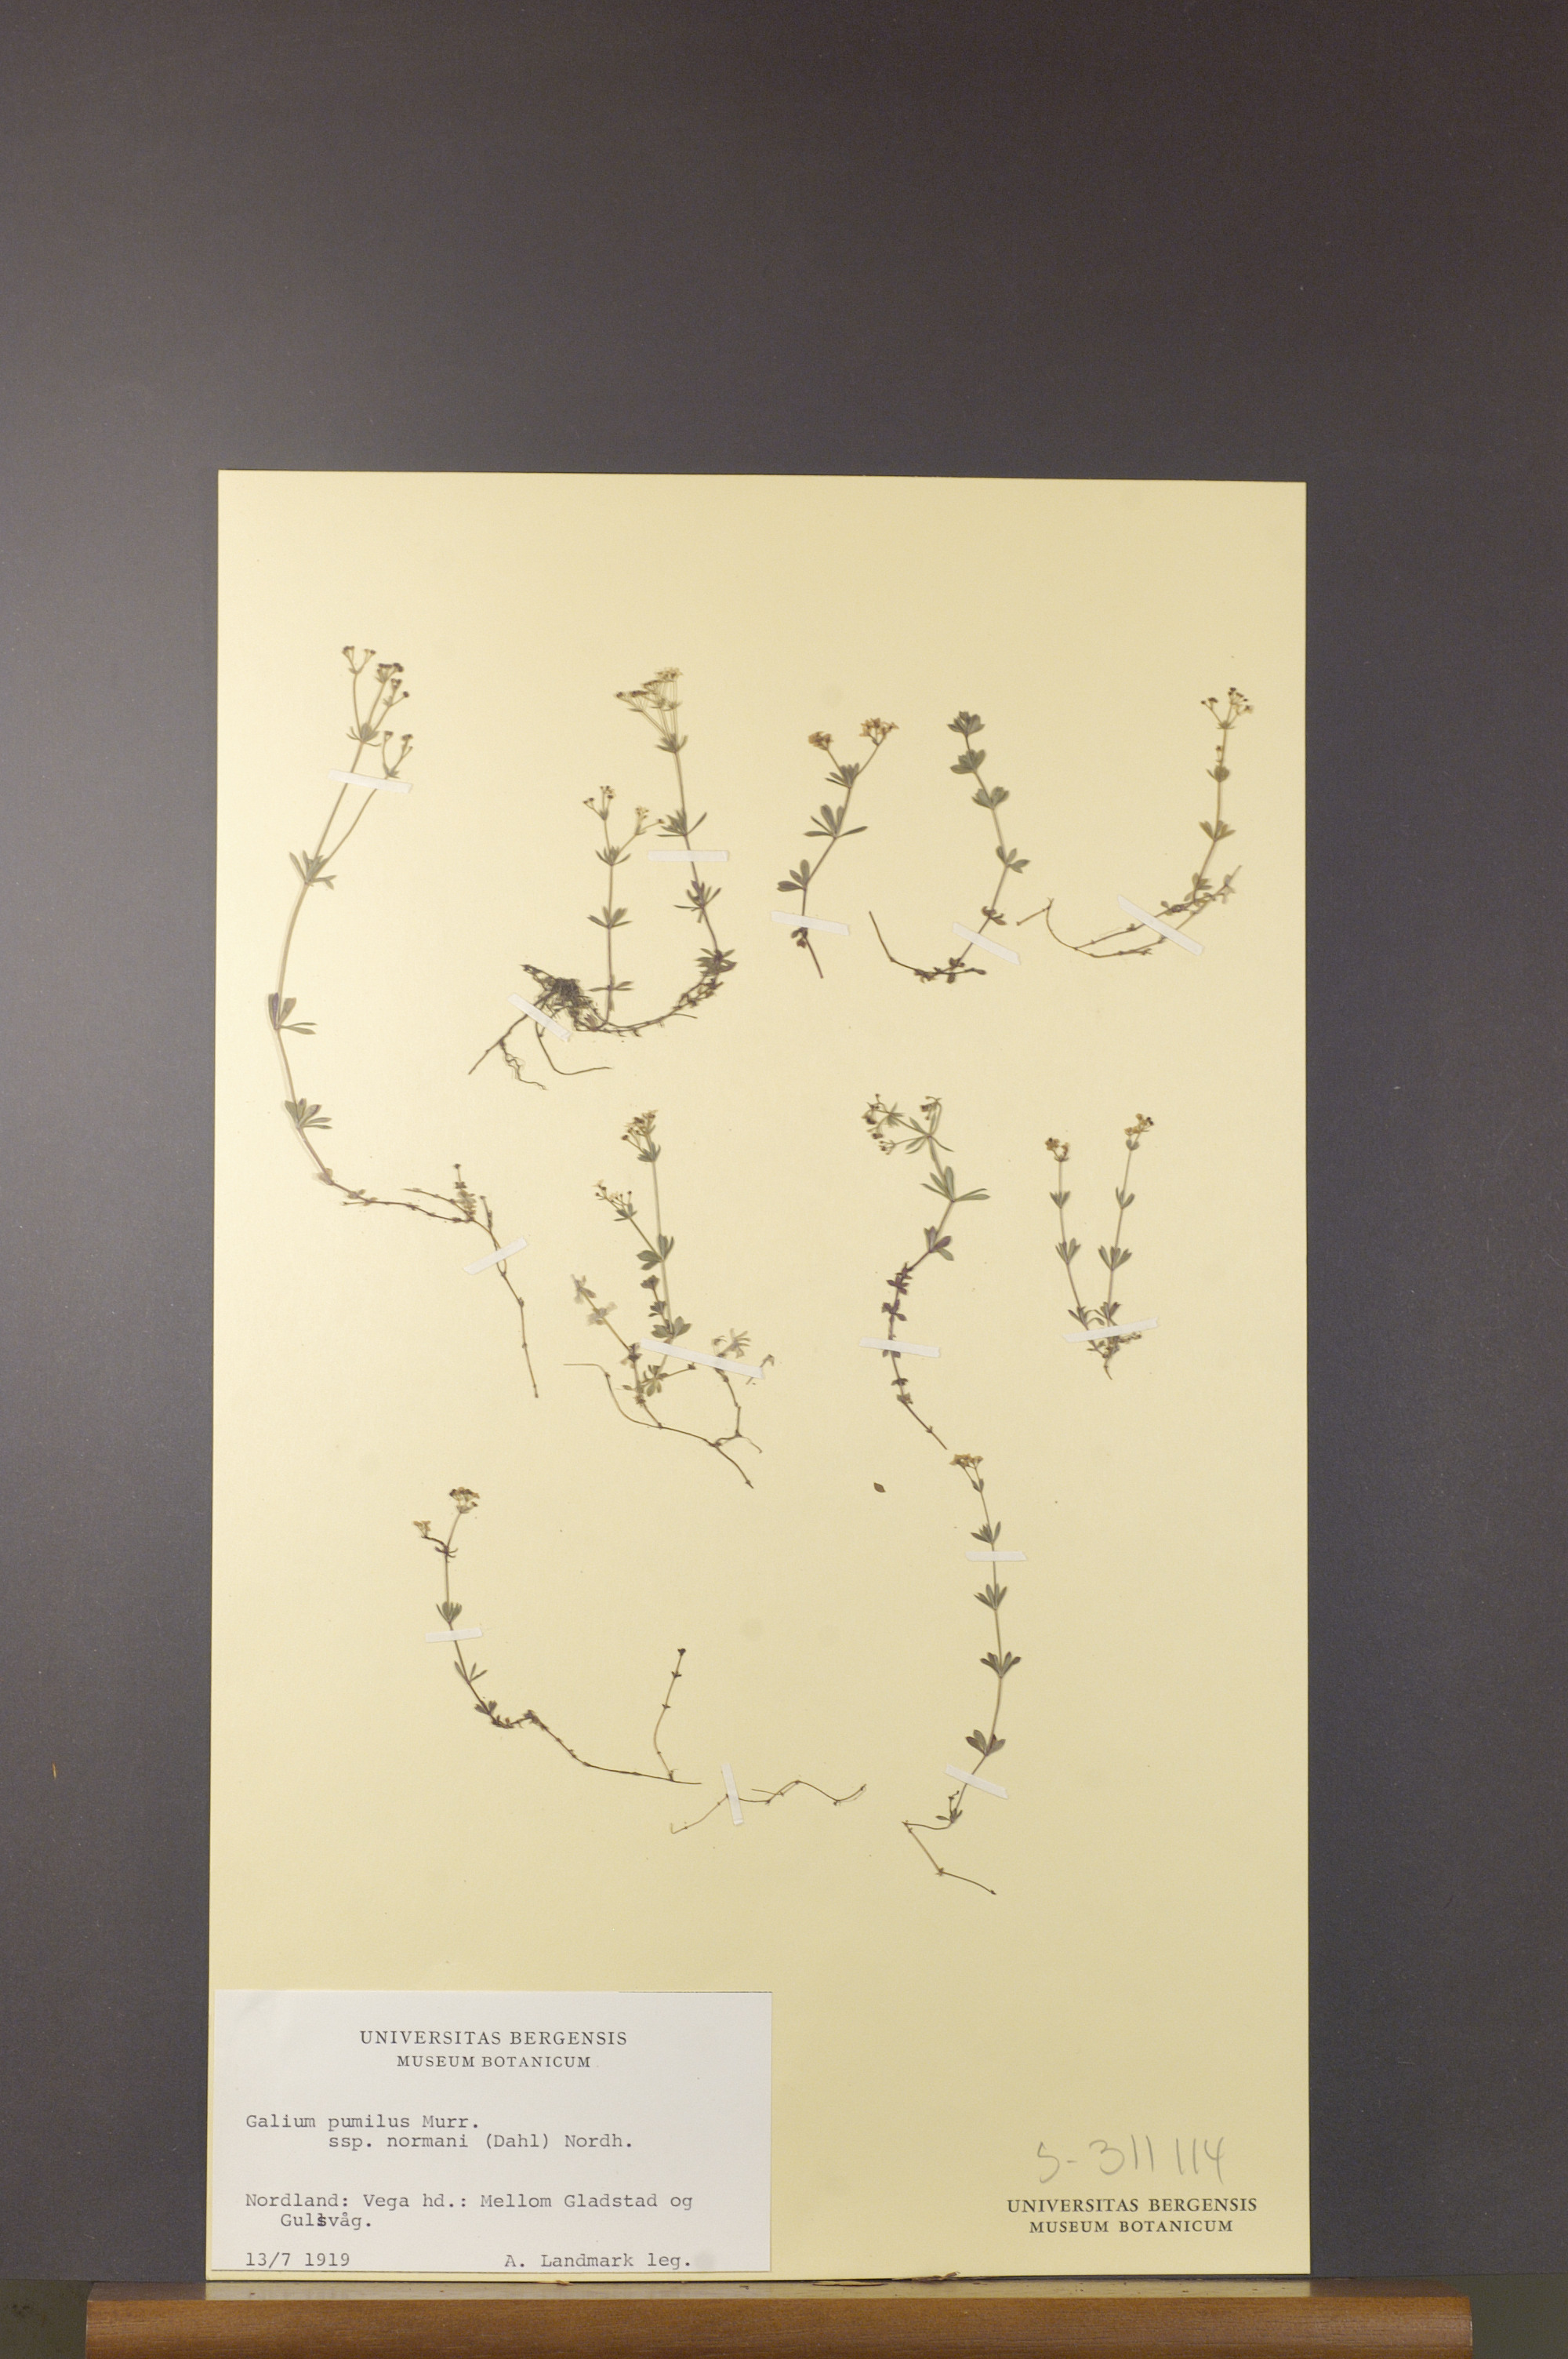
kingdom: Plantae
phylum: Tracheophyta
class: Magnoliopsida
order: Gentianales
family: Rubiaceae
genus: Galium
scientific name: Galium normanii
